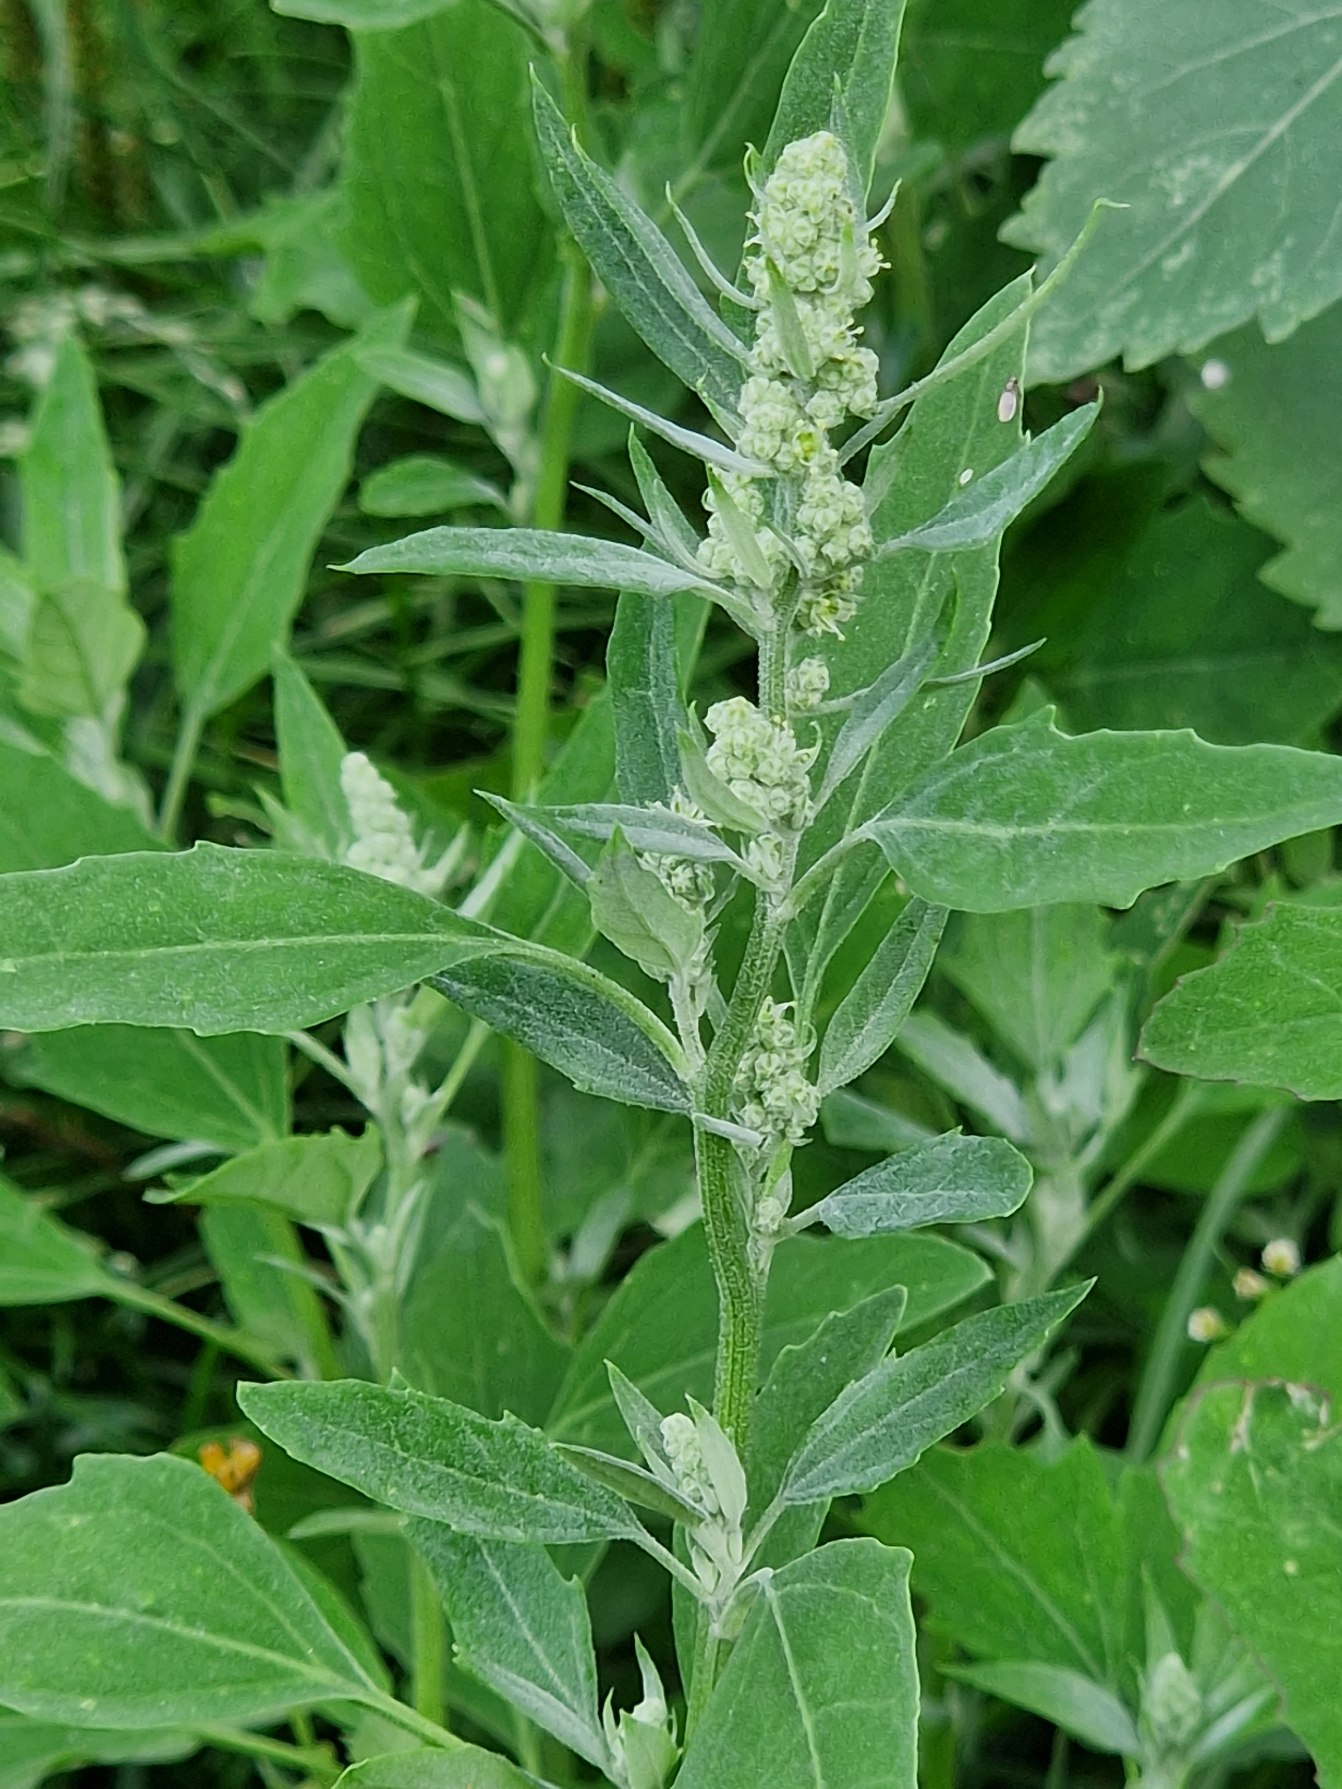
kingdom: Plantae
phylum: Tracheophyta
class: Magnoliopsida
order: Caryophyllales
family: Amaranthaceae
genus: Chenopodium
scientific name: Chenopodium album
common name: Hvidmelet gåsefod
